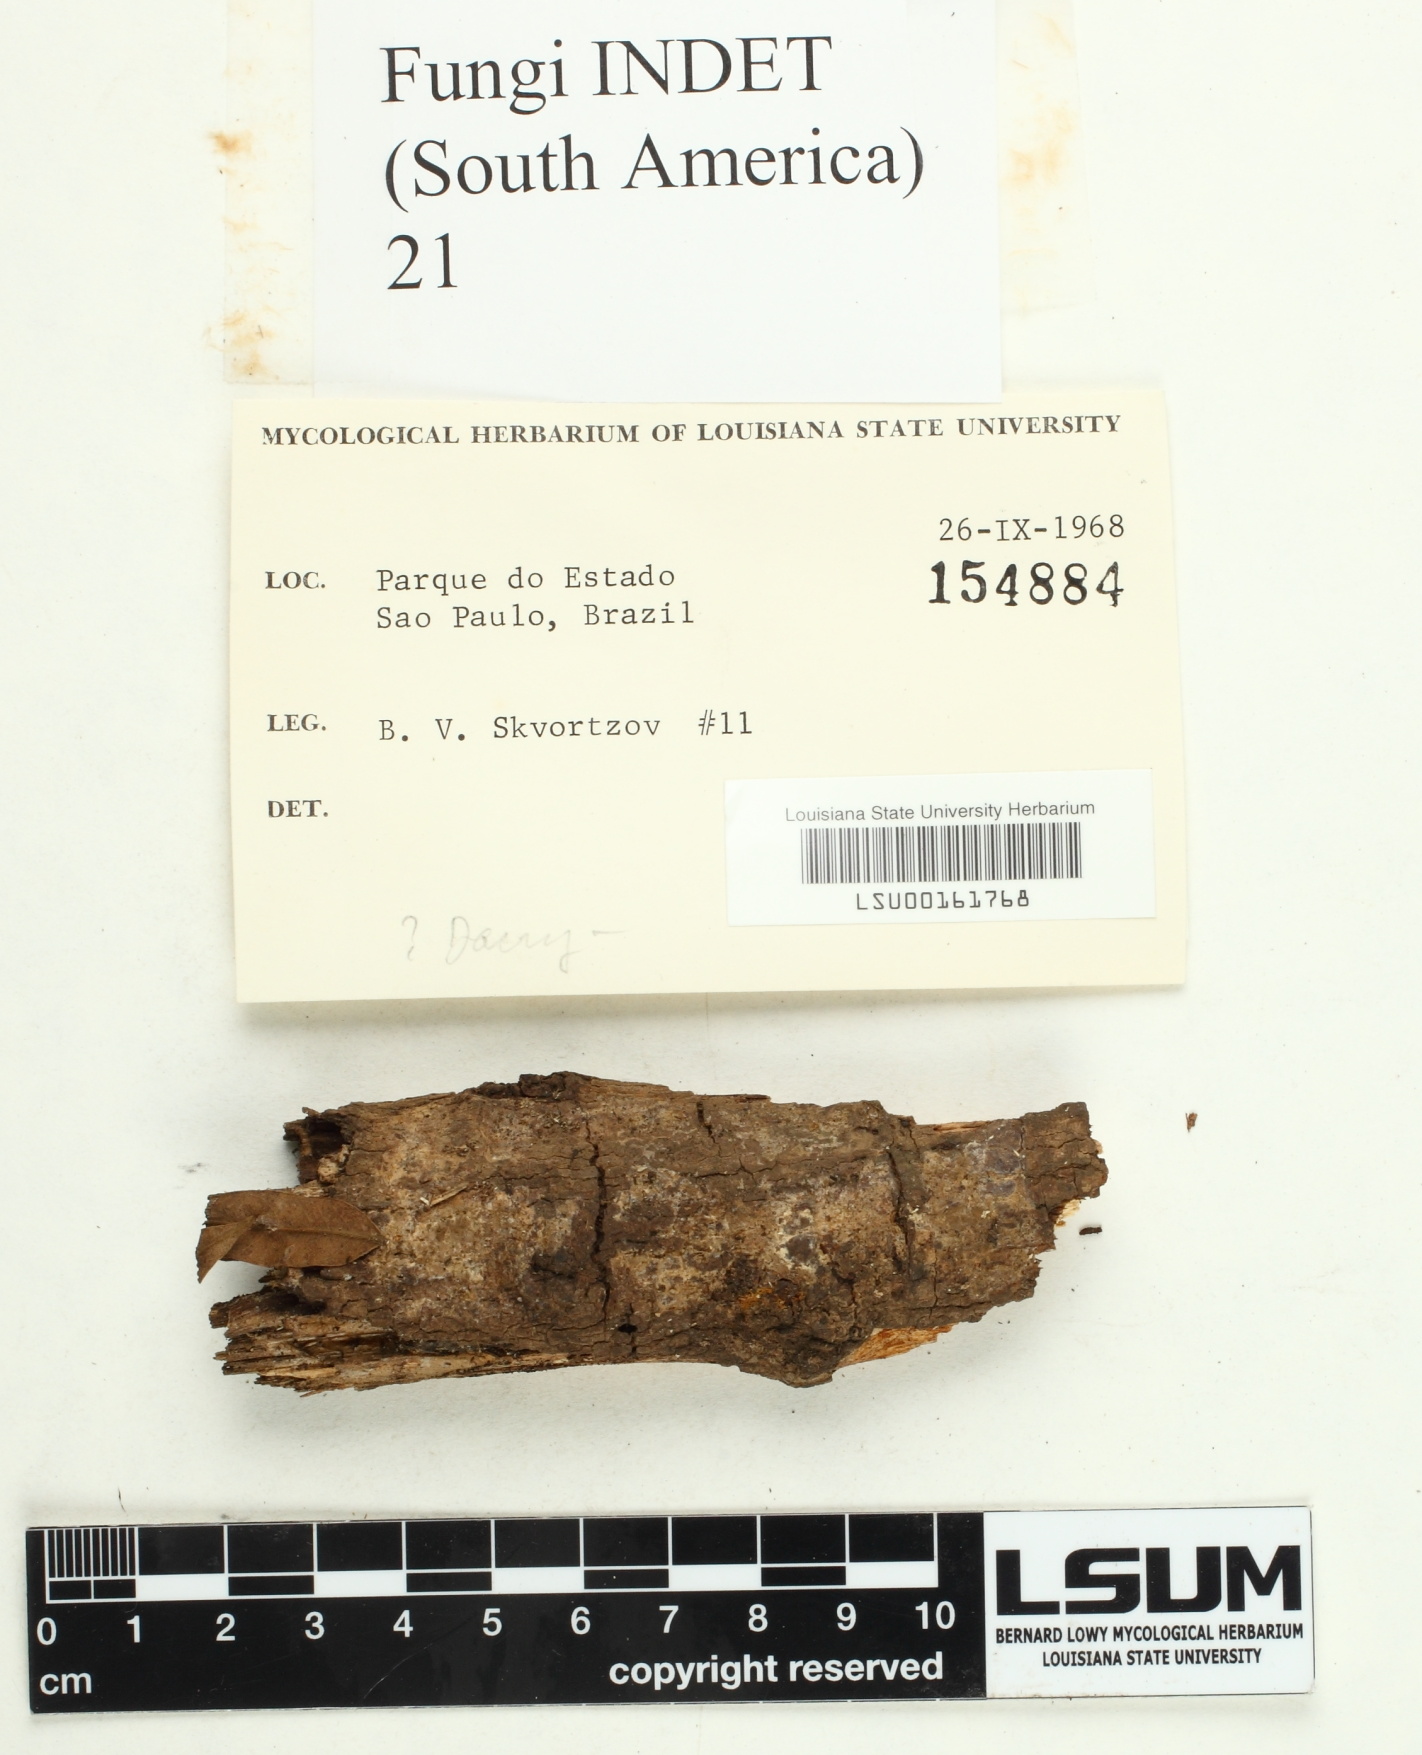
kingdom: Fungi
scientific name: Fungi
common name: Fungi
